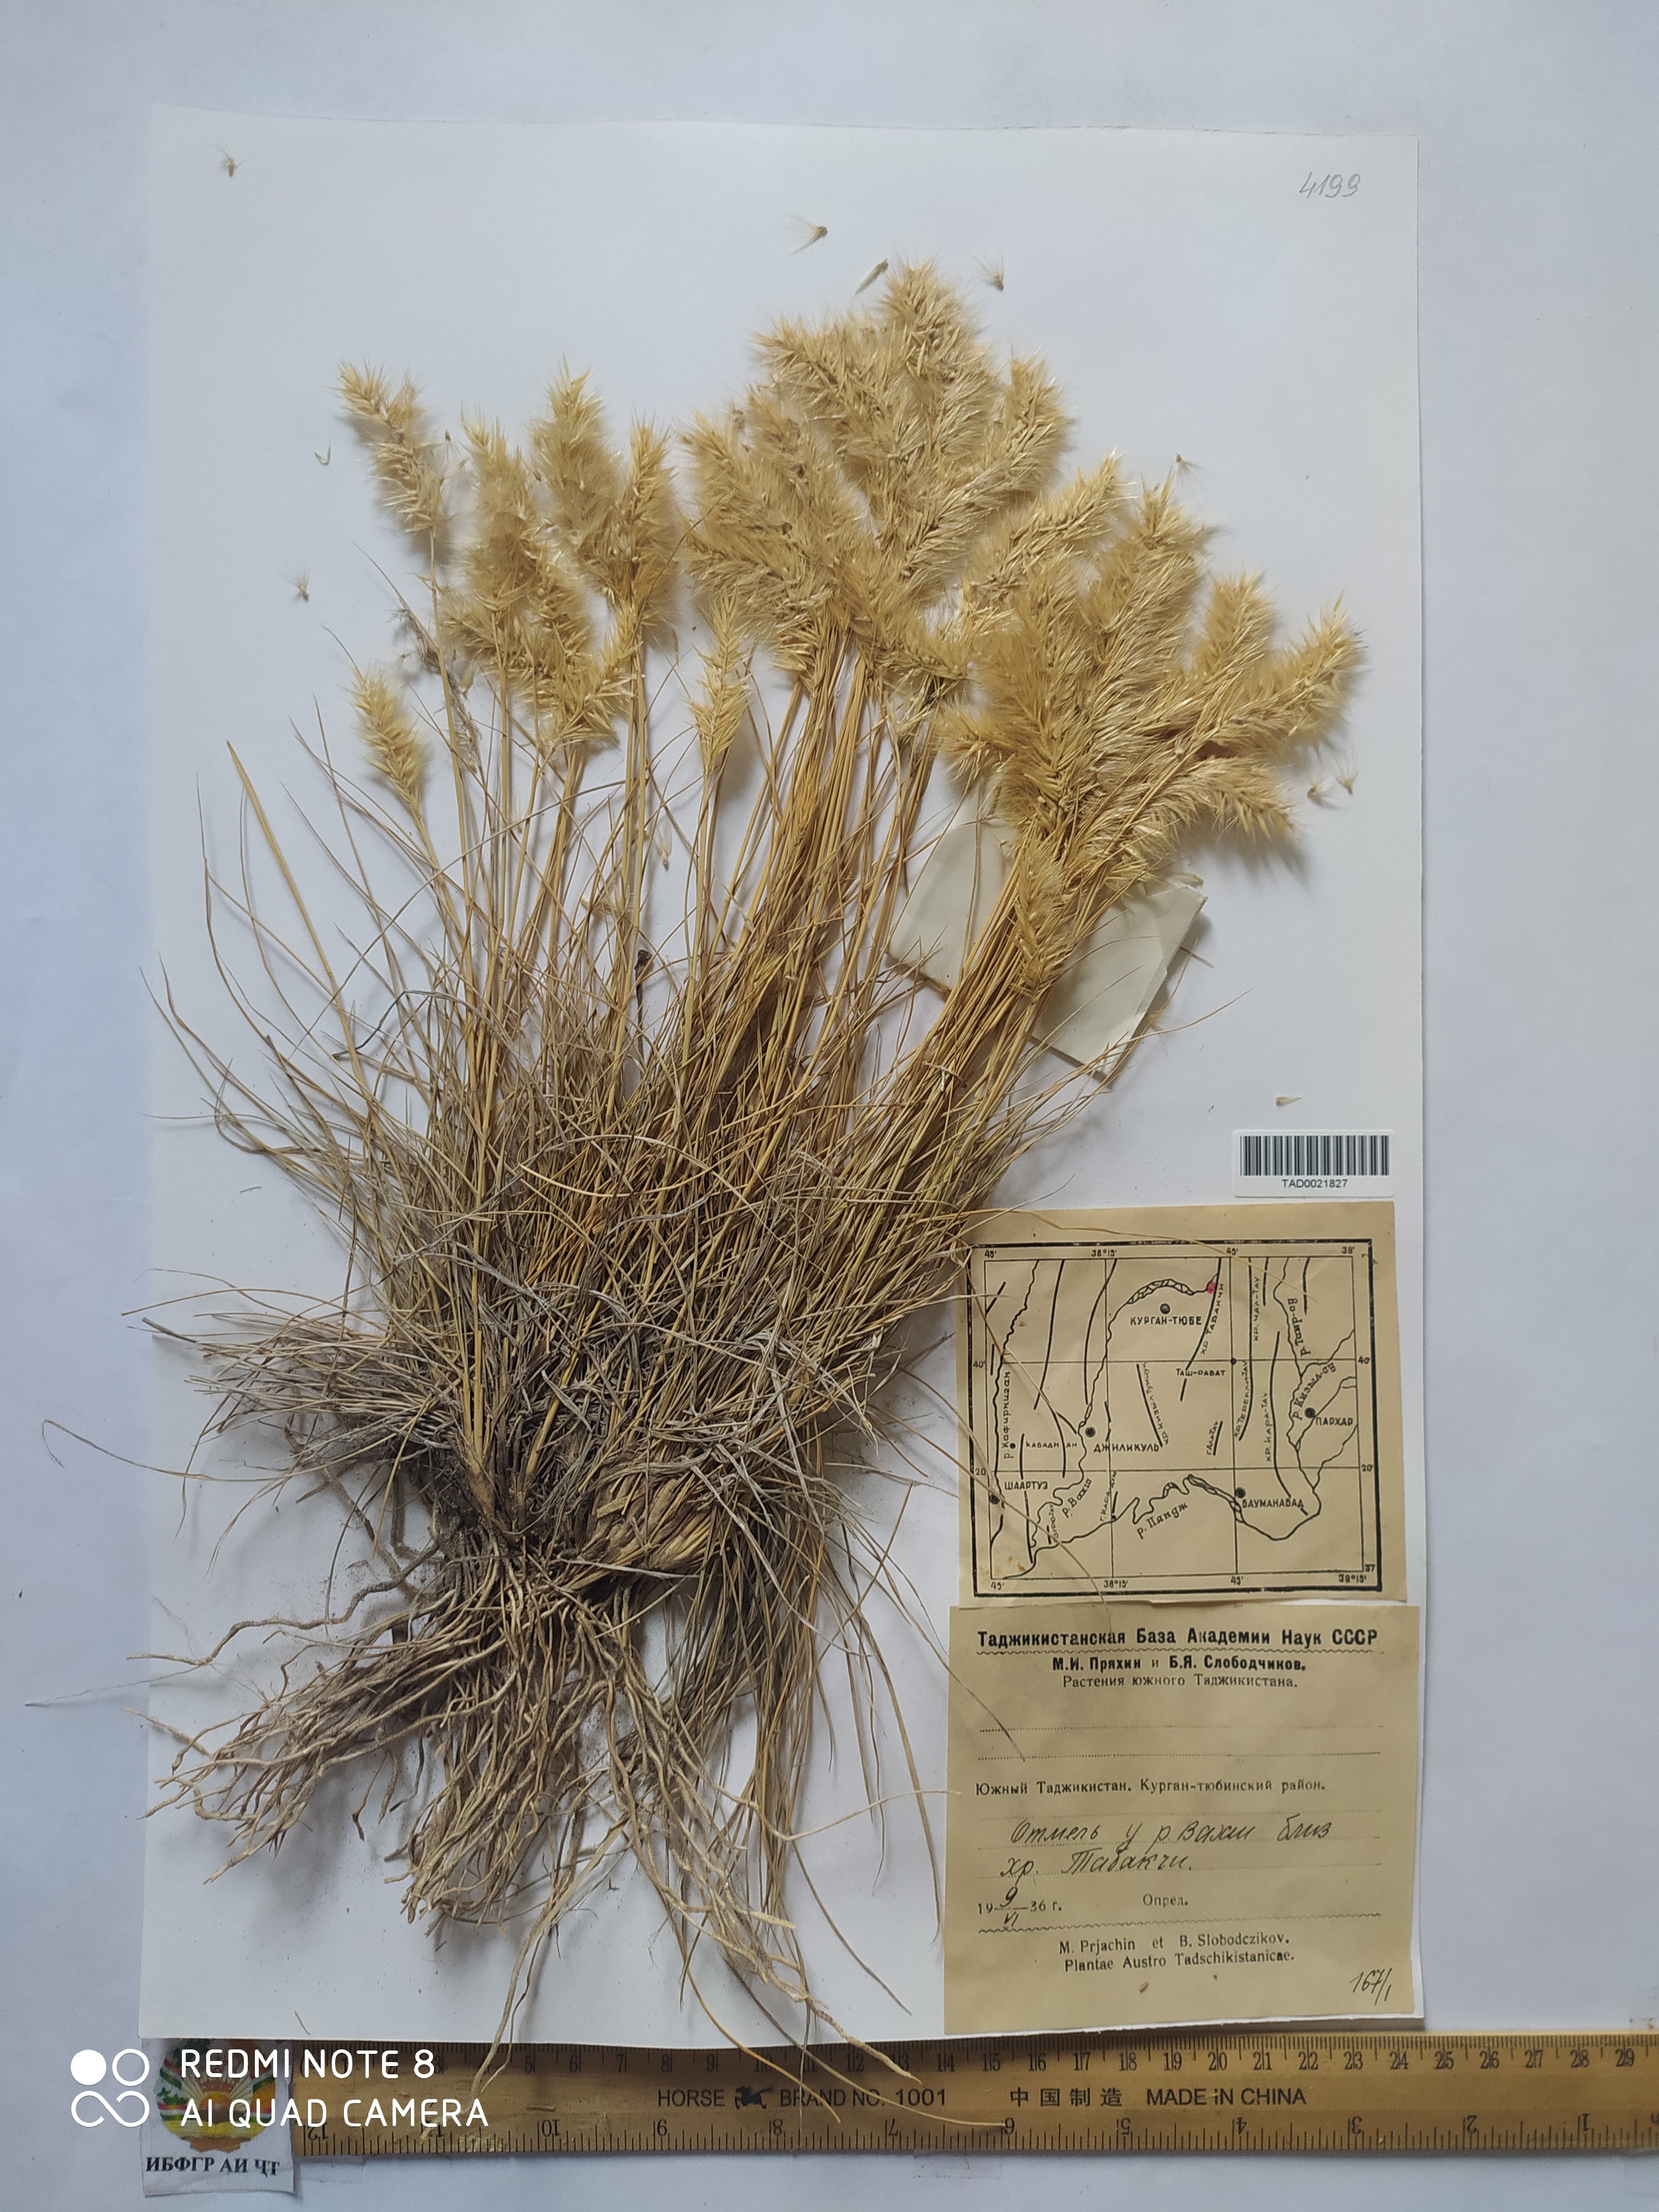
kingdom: Plantae
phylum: Tracheophyta
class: Liliopsida
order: Poales
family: Poaceae
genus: Enneapogon
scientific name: Enneapogon persicus
